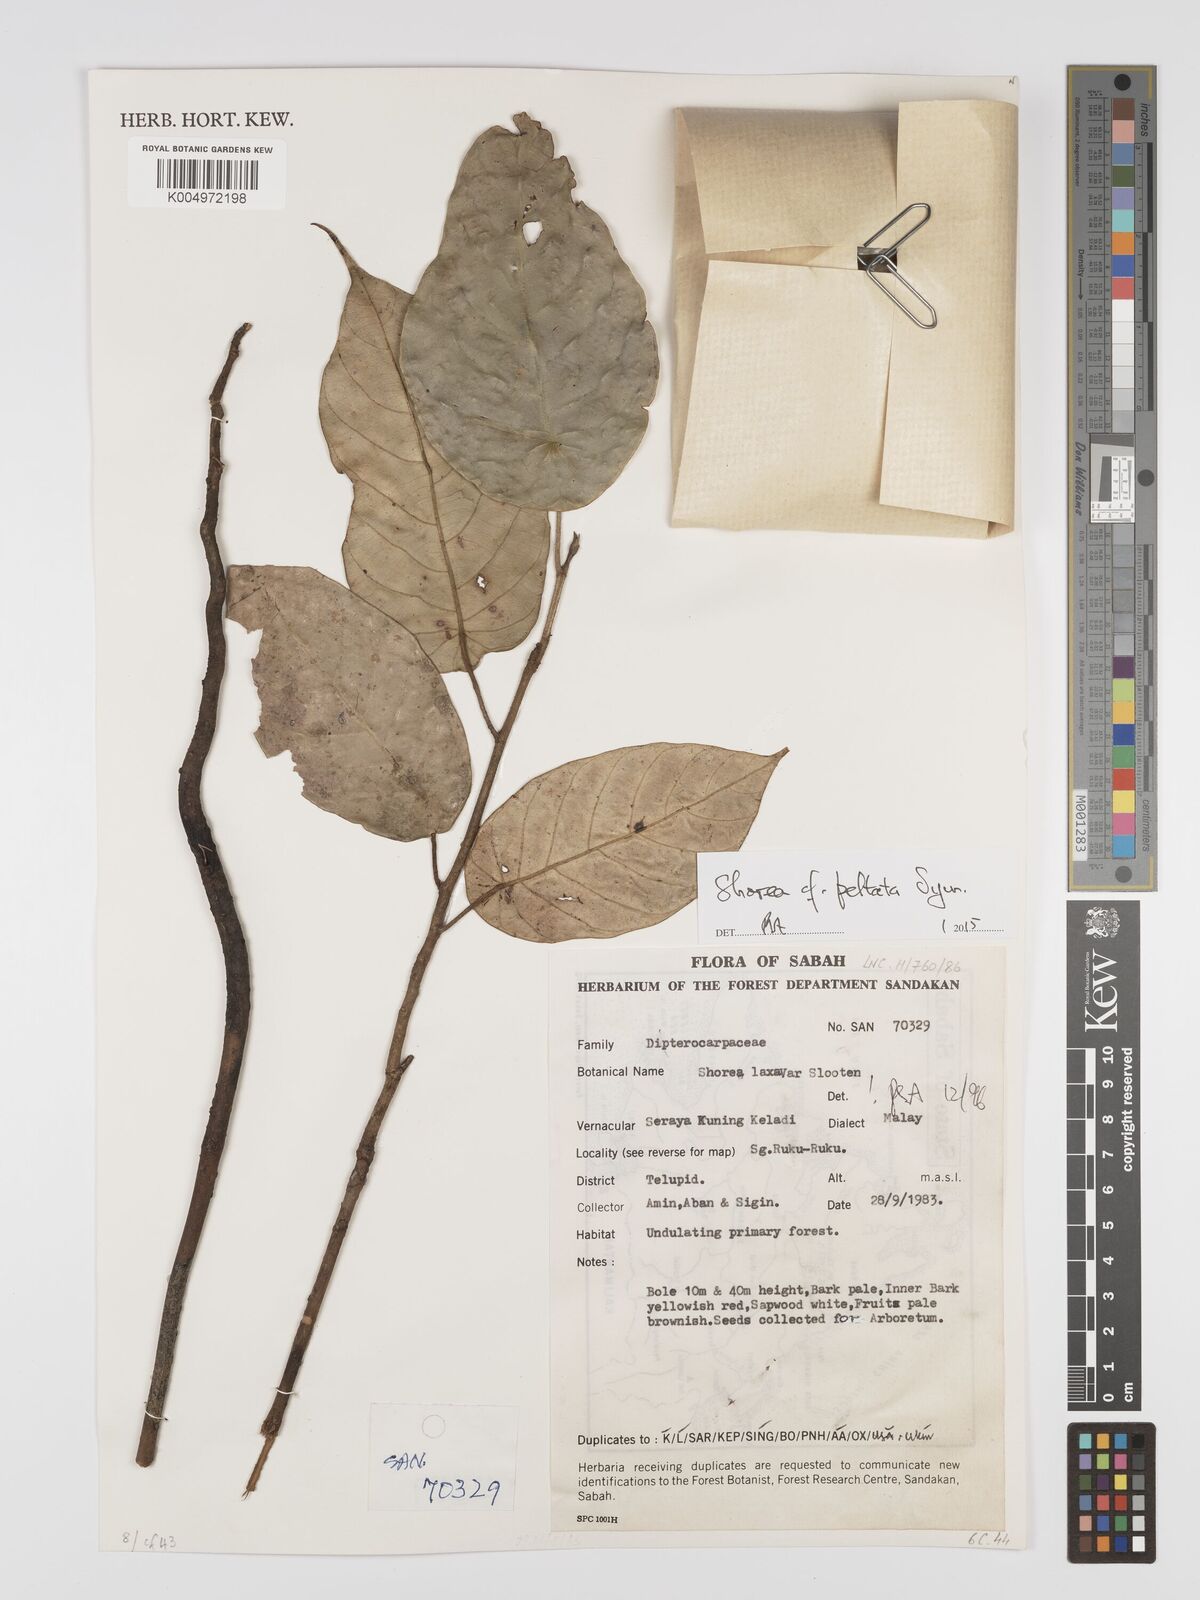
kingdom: Plantae
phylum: Tracheophyta
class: Magnoliopsida
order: Malvales
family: Dipterocarpaceae
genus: Shorea
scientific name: Shorea peltata
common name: Yellow meranti
